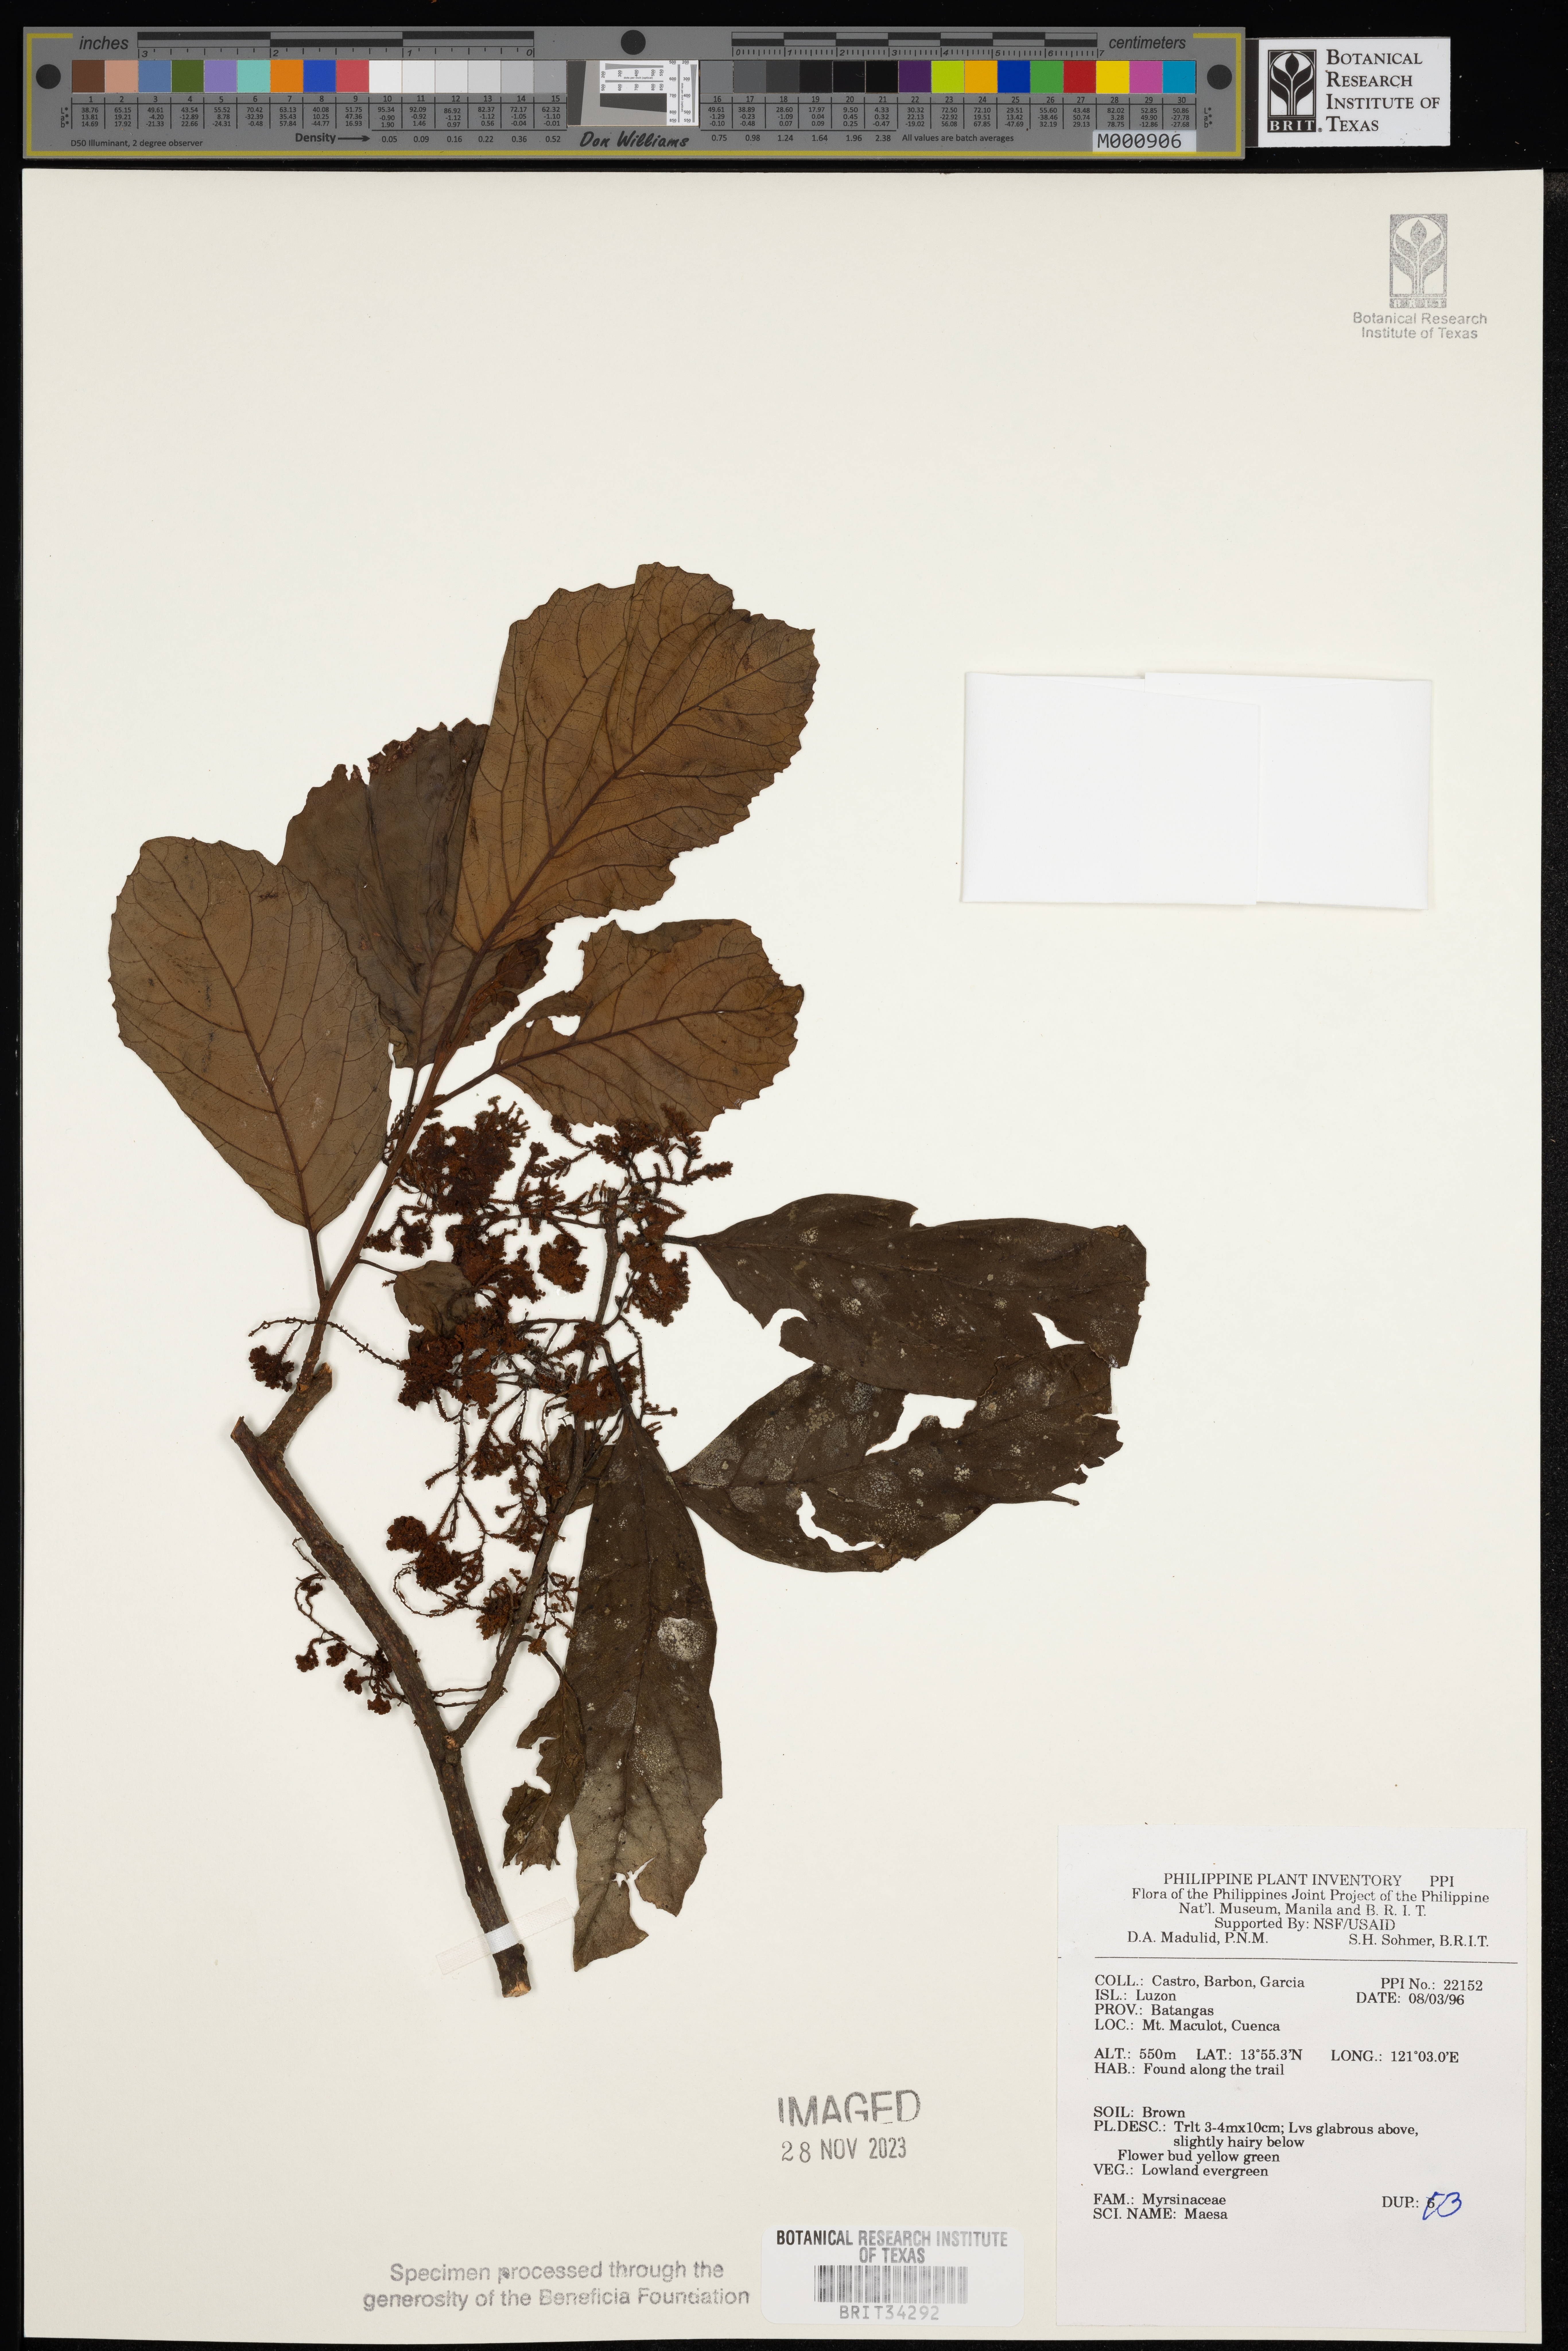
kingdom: Plantae
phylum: Tracheophyta
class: Magnoliopsida
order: Ericales
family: Primulaceae
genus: Maesa
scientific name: Maesa
